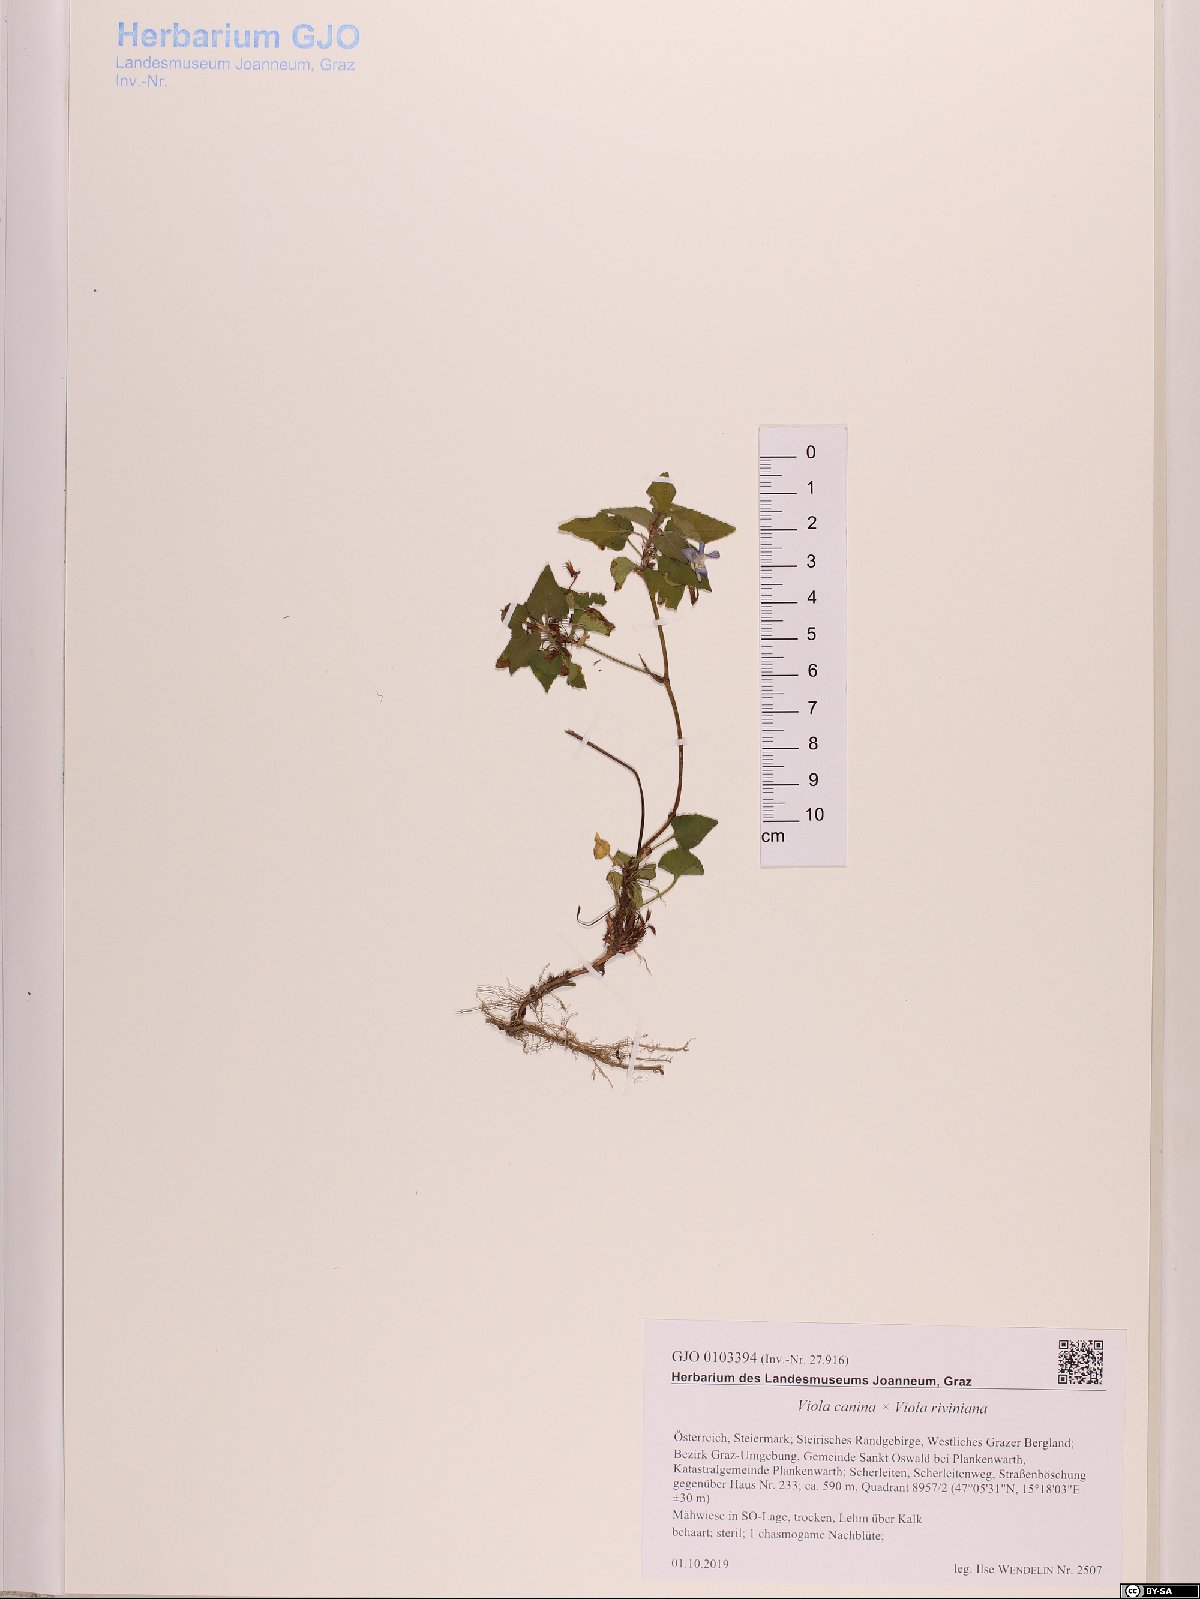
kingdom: Plantae
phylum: Tracheophyta
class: Magnoliopsida
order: Malpighiales
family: Violaceae
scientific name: Violaceae
